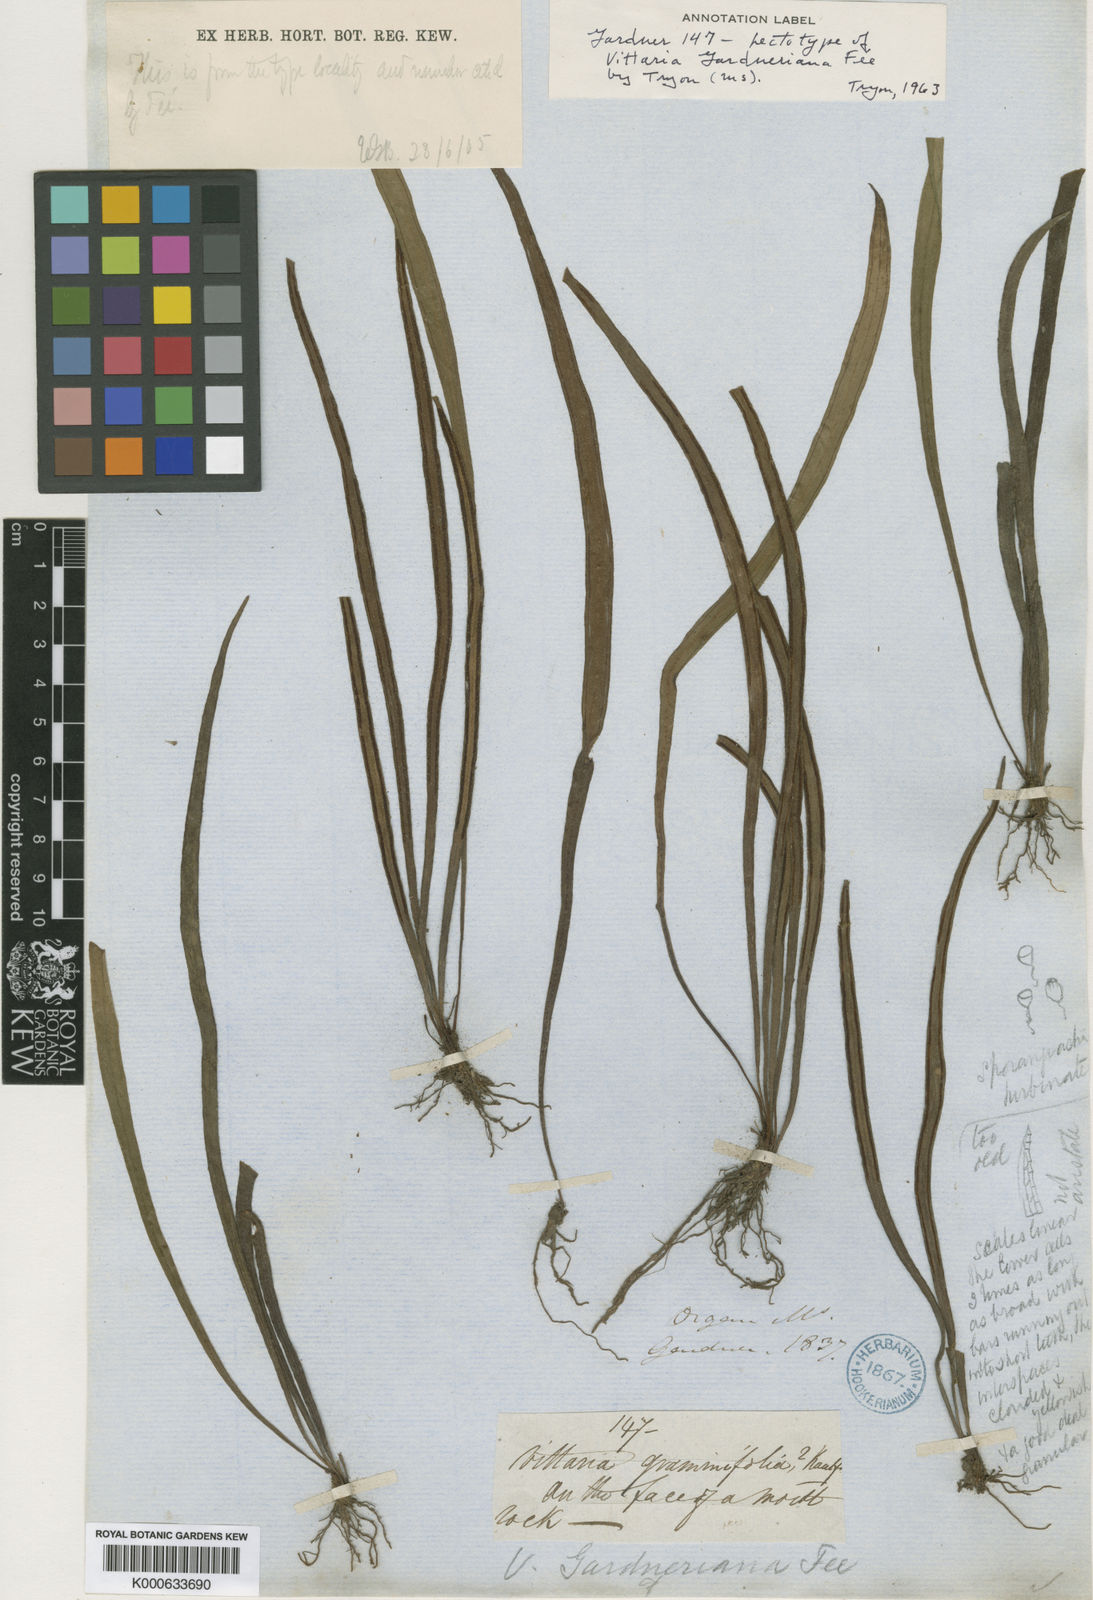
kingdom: Plantae
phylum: Tracheophyta
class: Polypodiopsida
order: Polypodiales
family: Pteridaceae
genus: Vittaria
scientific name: Vittaria
